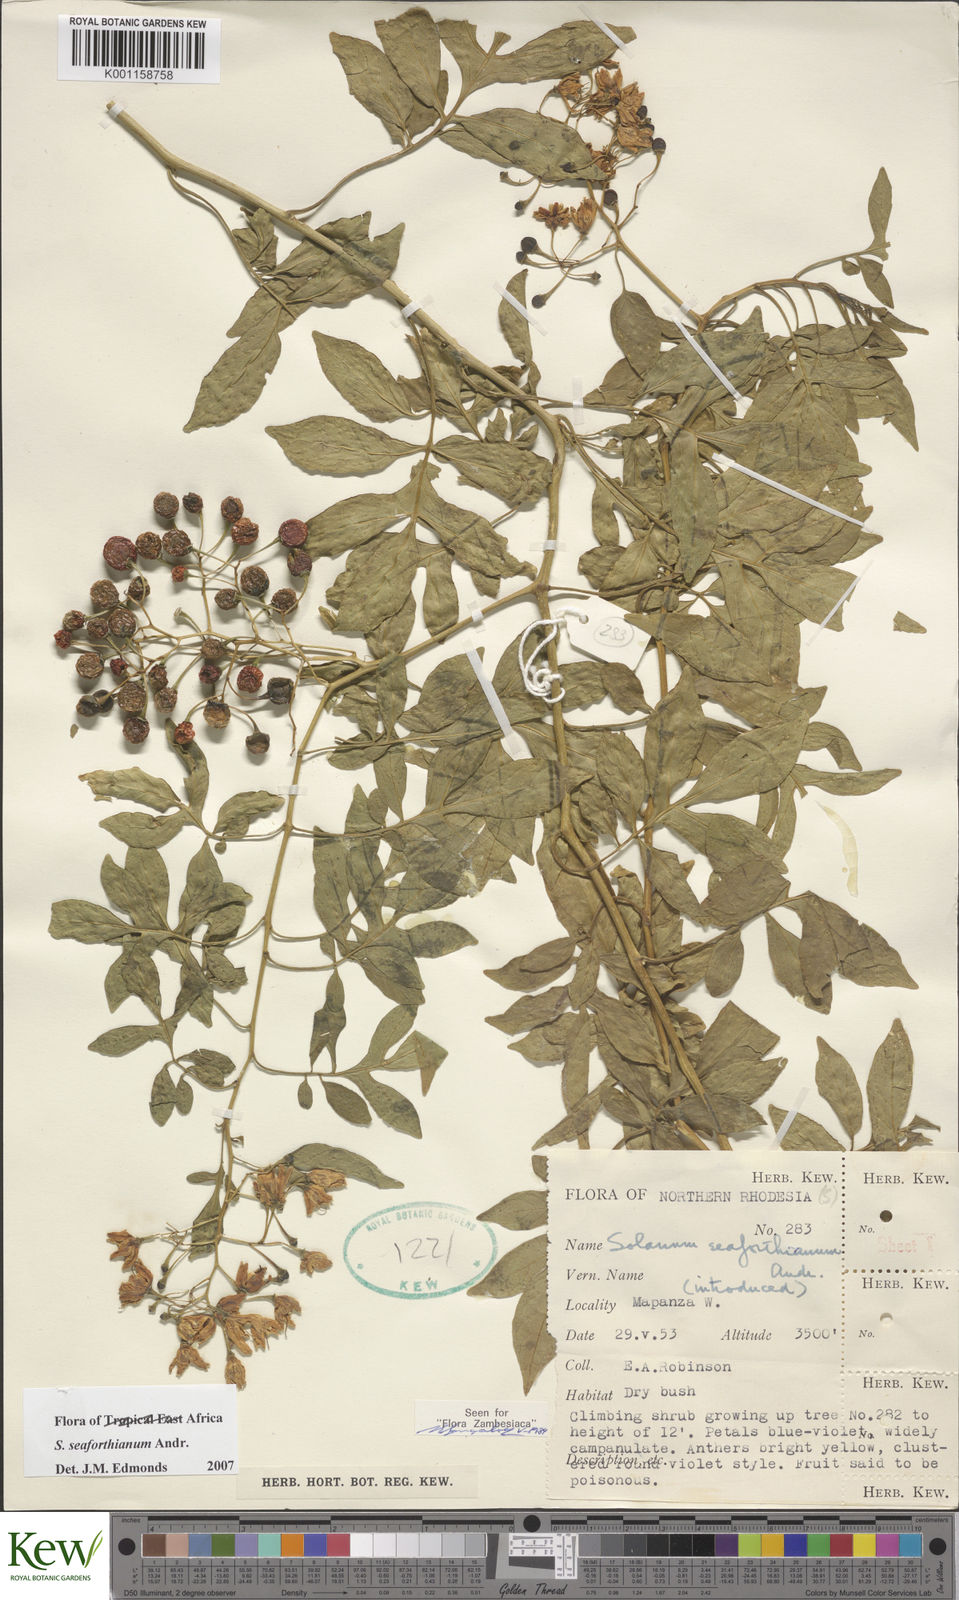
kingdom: Plantae
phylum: Tracheophyta
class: Magnoliopsida
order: Solanales
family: Solanaceae
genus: Solanum
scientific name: Solanum seaforthianum
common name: Brazilian nightshade
